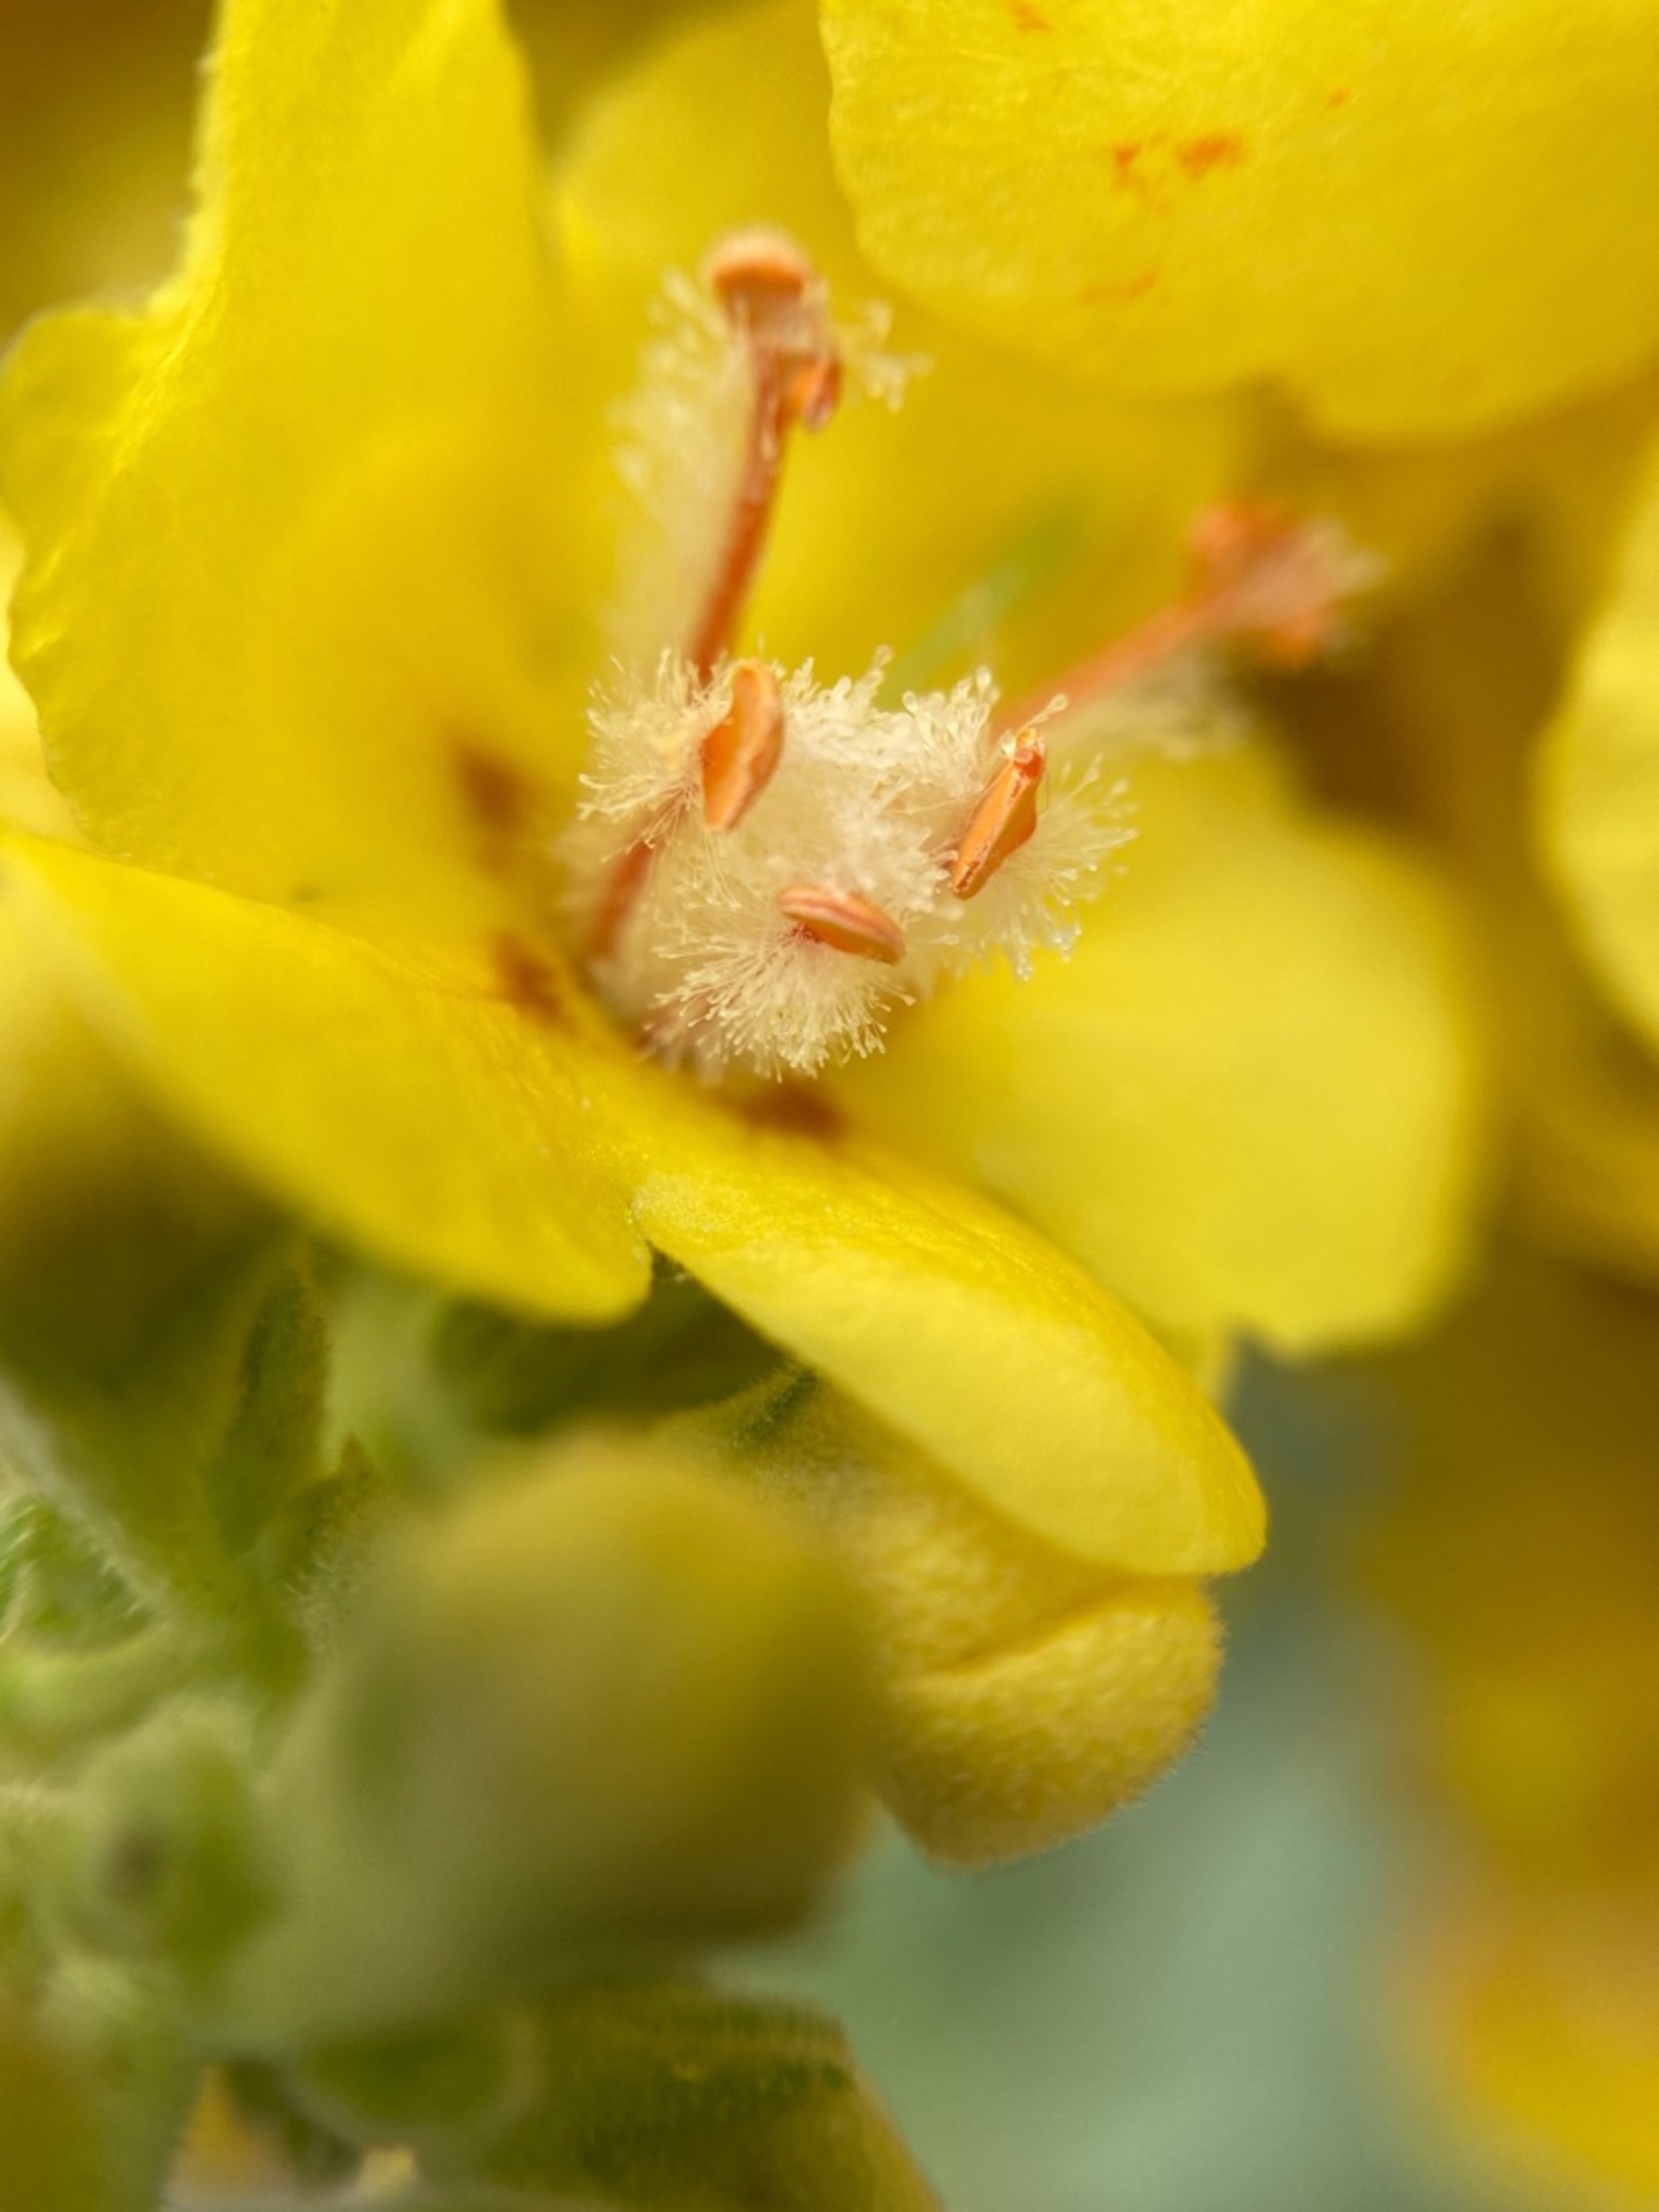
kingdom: Plantae
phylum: Tracheophyta
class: Magnoliopsida
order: Lamiales
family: Scrophulariaceae
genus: Verbascum
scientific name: Verbascum speciosum
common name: Kandelaber-kongelys
